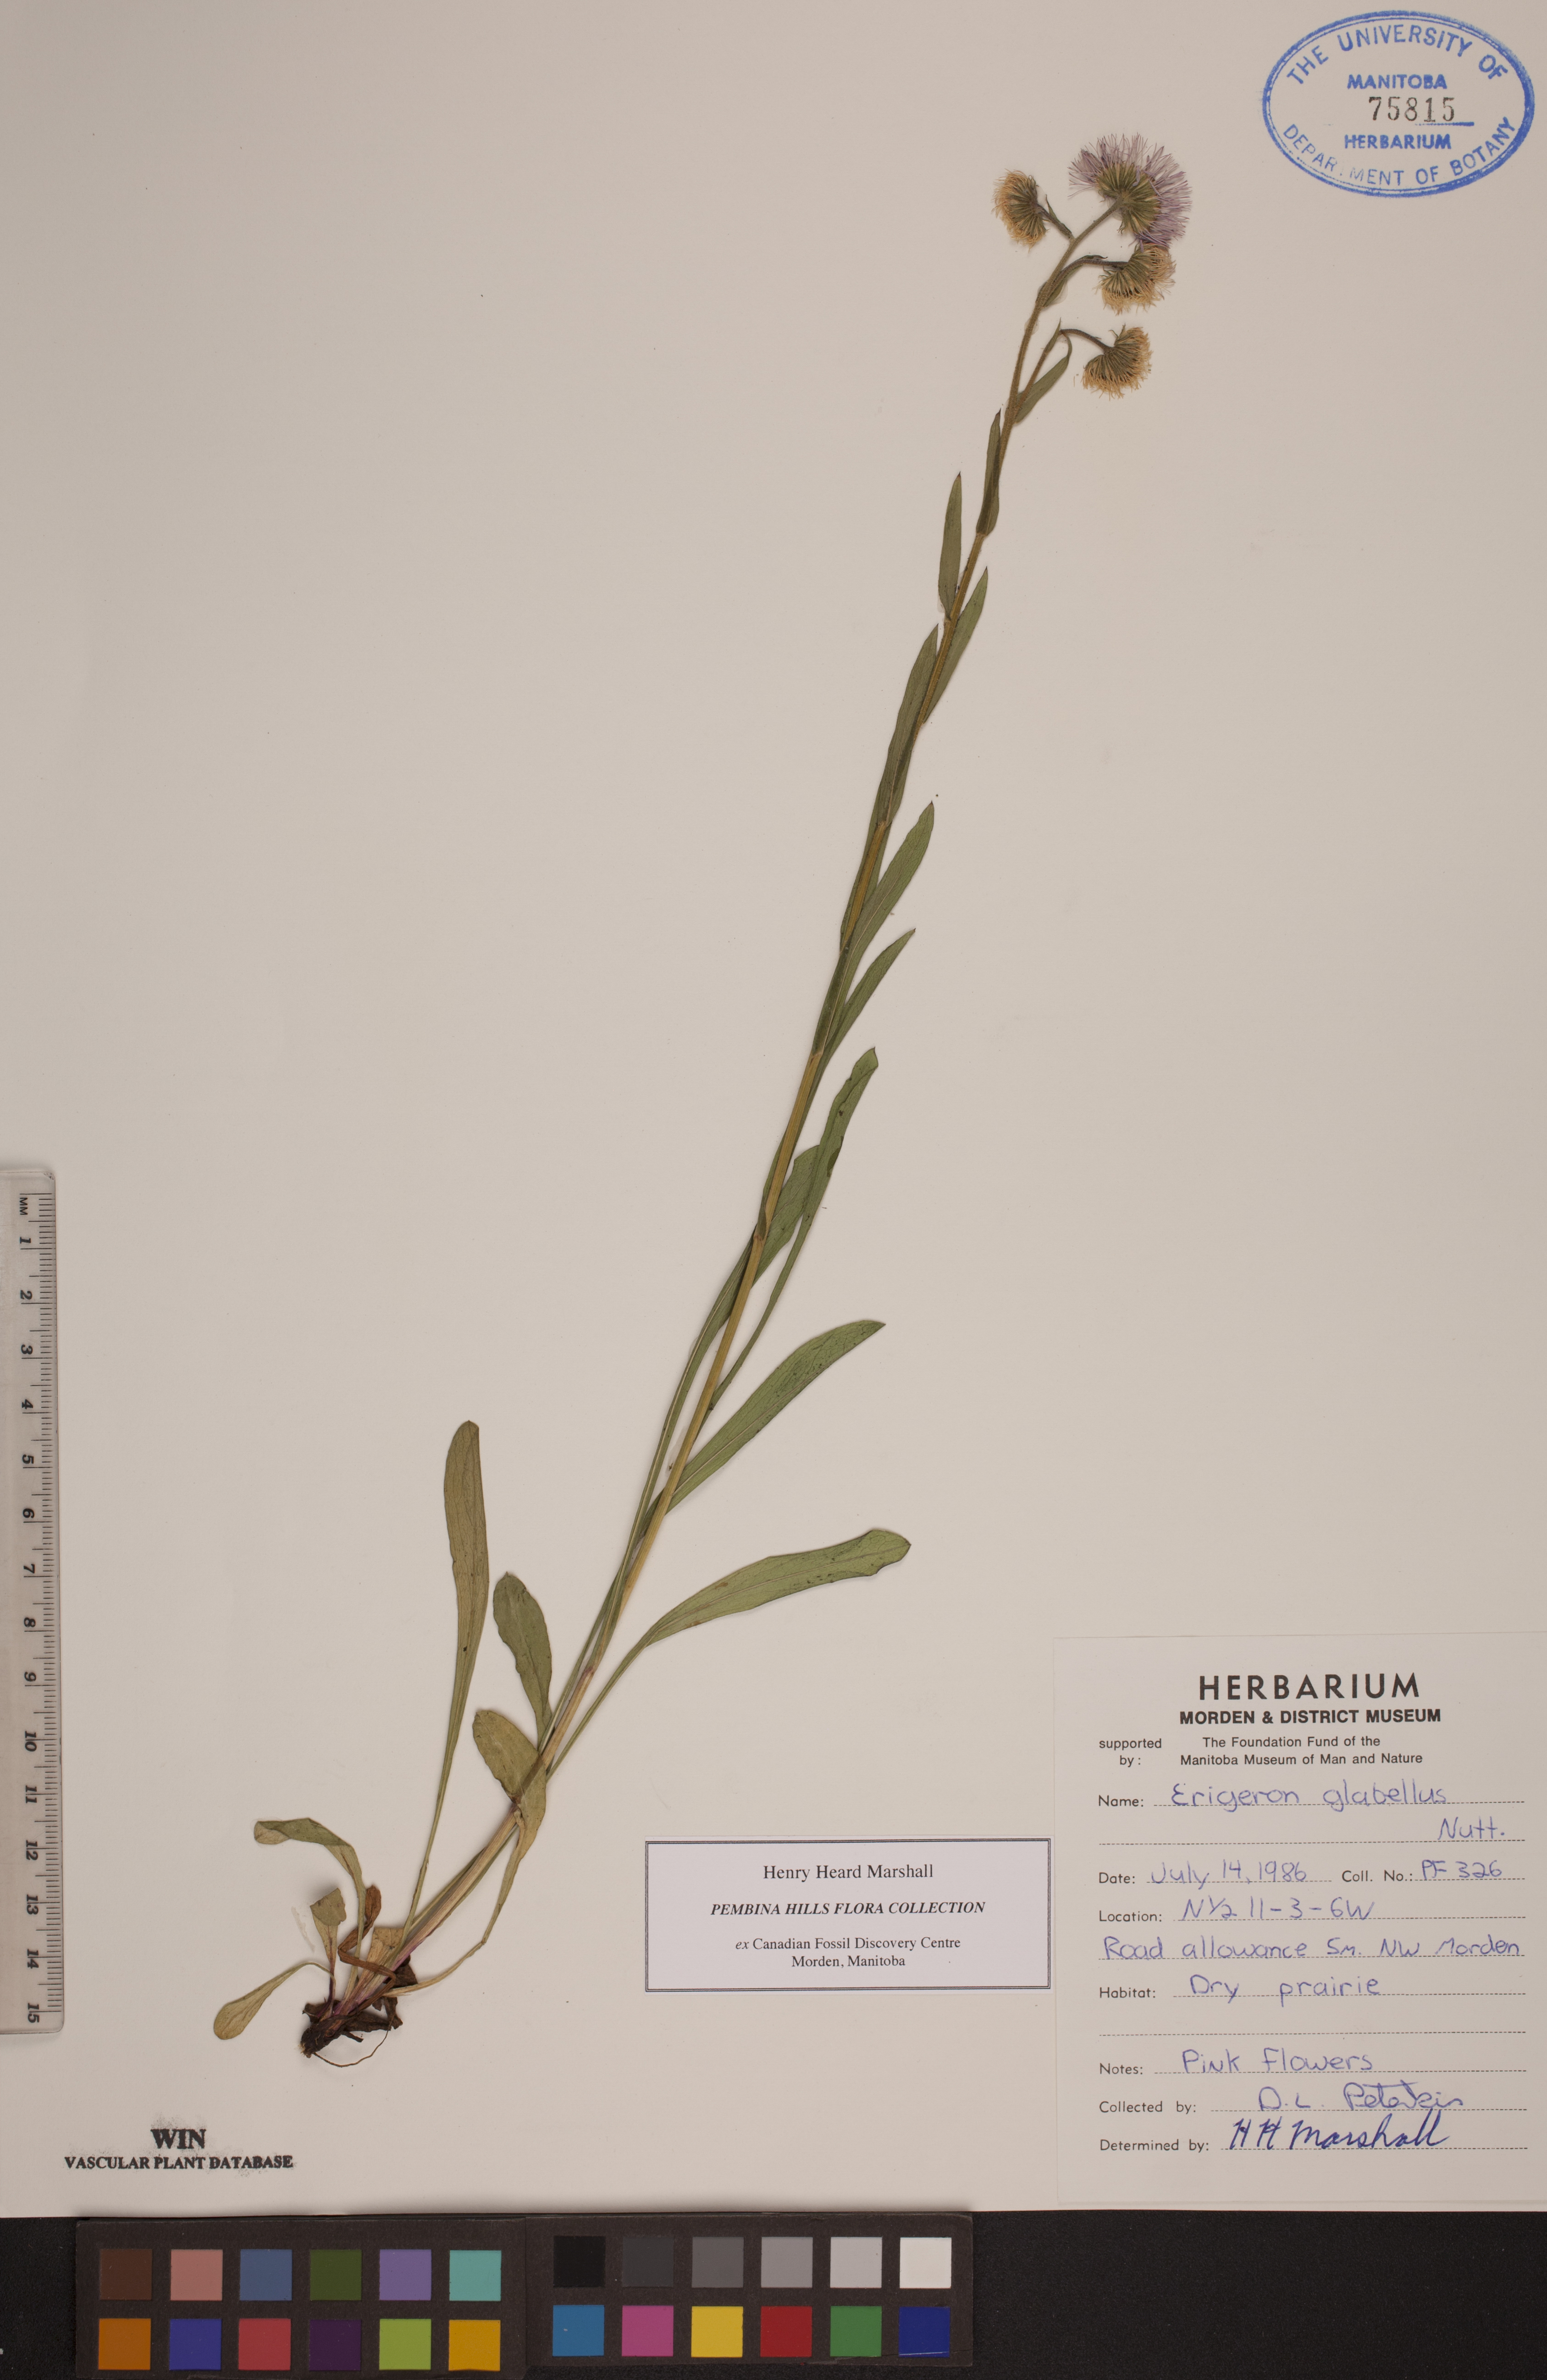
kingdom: Plantae
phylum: Tracheophyta
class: Magnoliopsida
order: Asterales
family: Asteraceae
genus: Erigeron
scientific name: Erigeron glabellus
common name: Smooth fleabane
